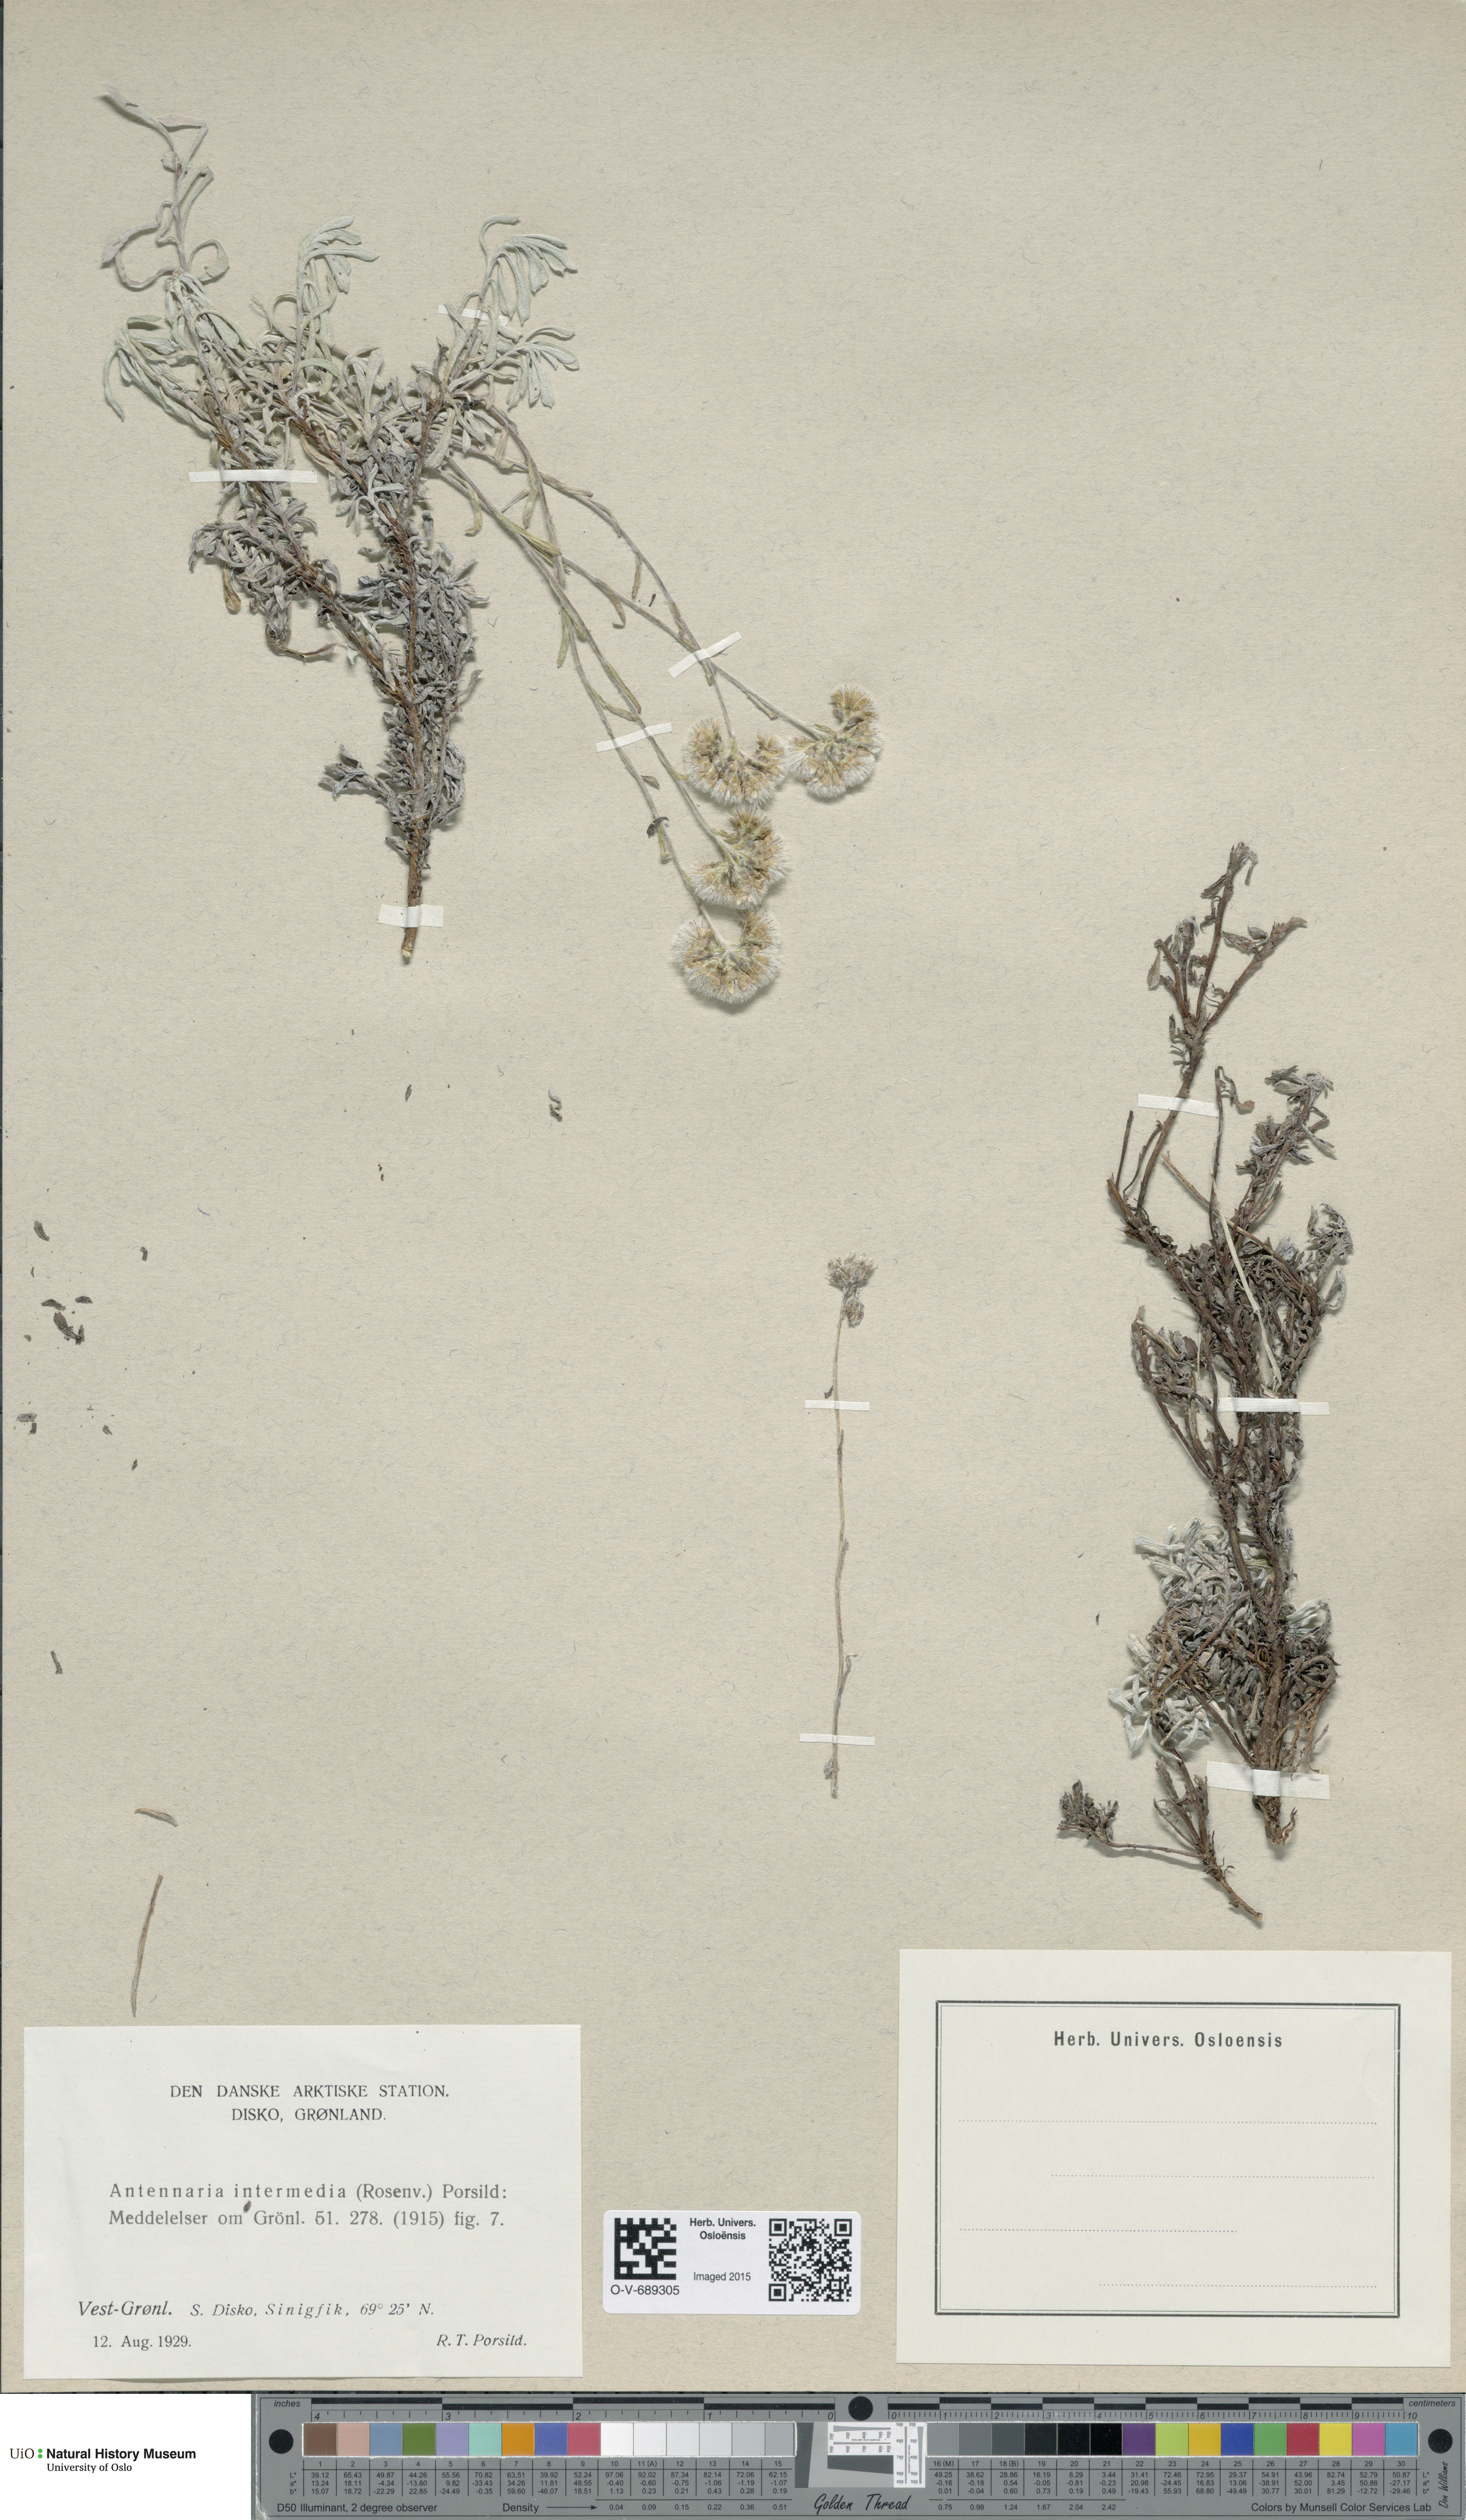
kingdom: Plantae
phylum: Tracheophyta
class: Magnoliopsida
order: Asterales
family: Asteraceae
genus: Antennaria
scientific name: Antennaria rosea
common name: Rosy pussytoes
